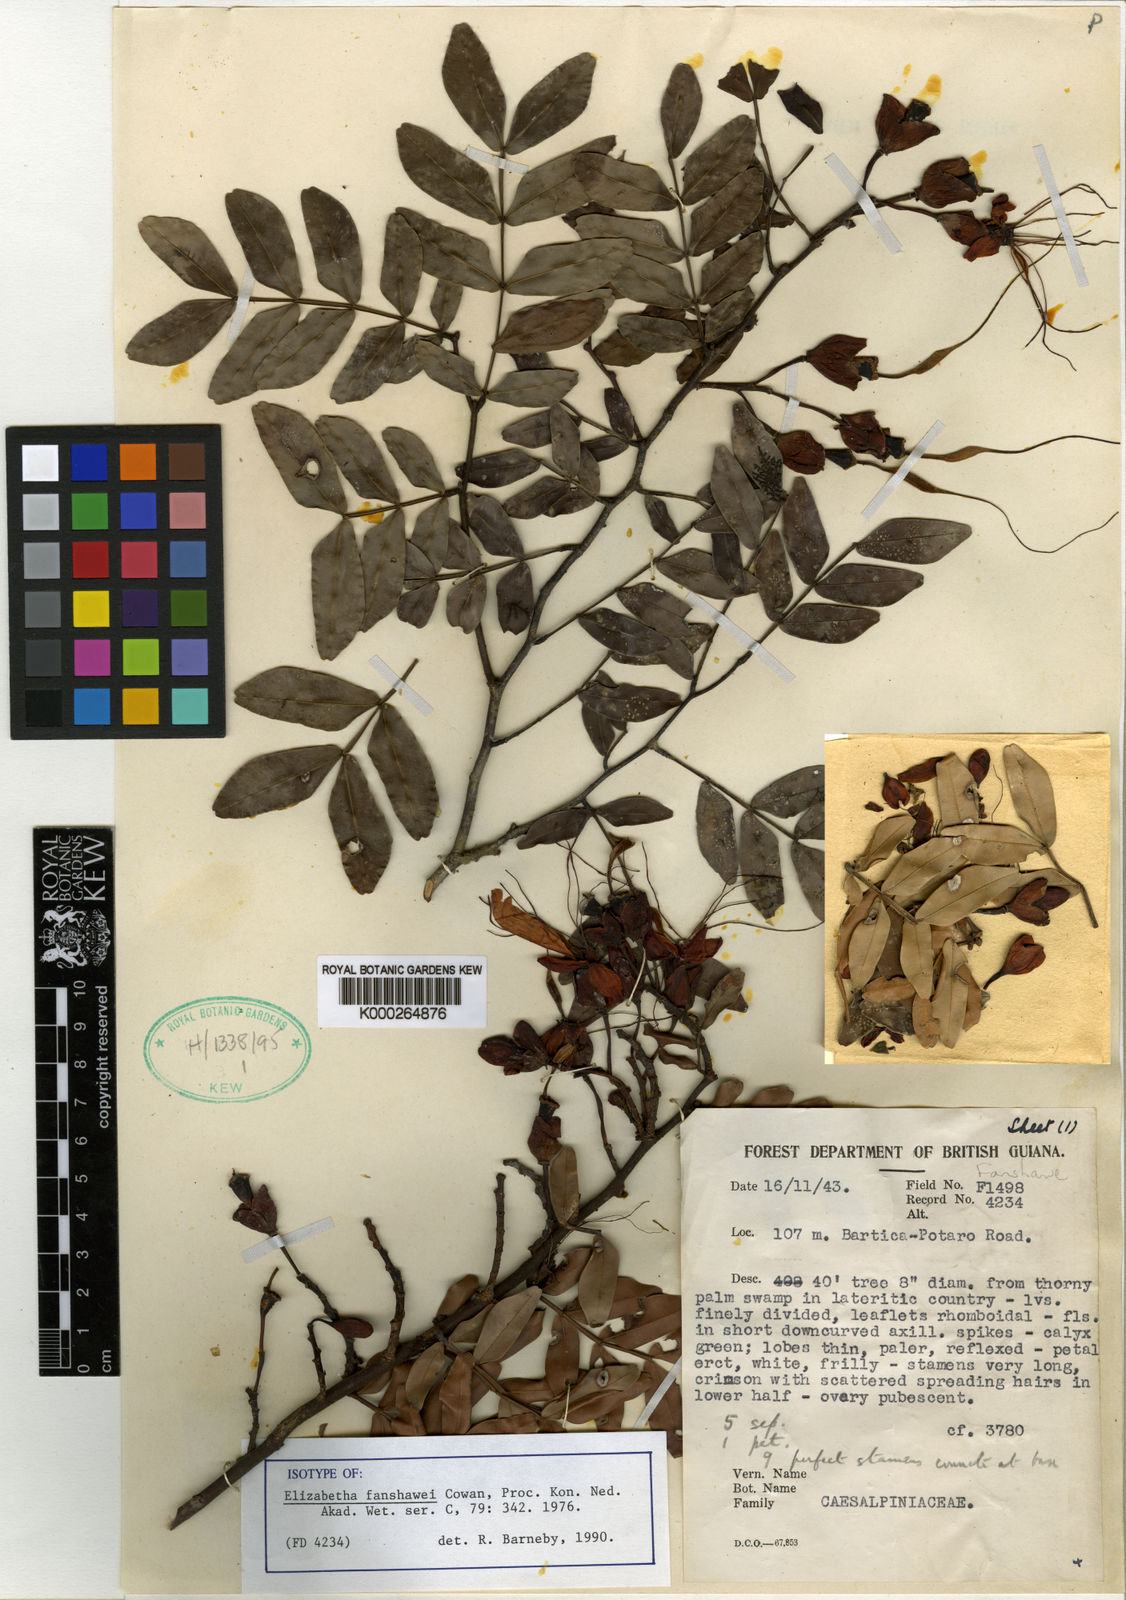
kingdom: Plantae
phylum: Tracheophyta
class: Magnoliopsida
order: Fabales
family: Fabaceae
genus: Paloue
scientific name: Paloue fanshawei
